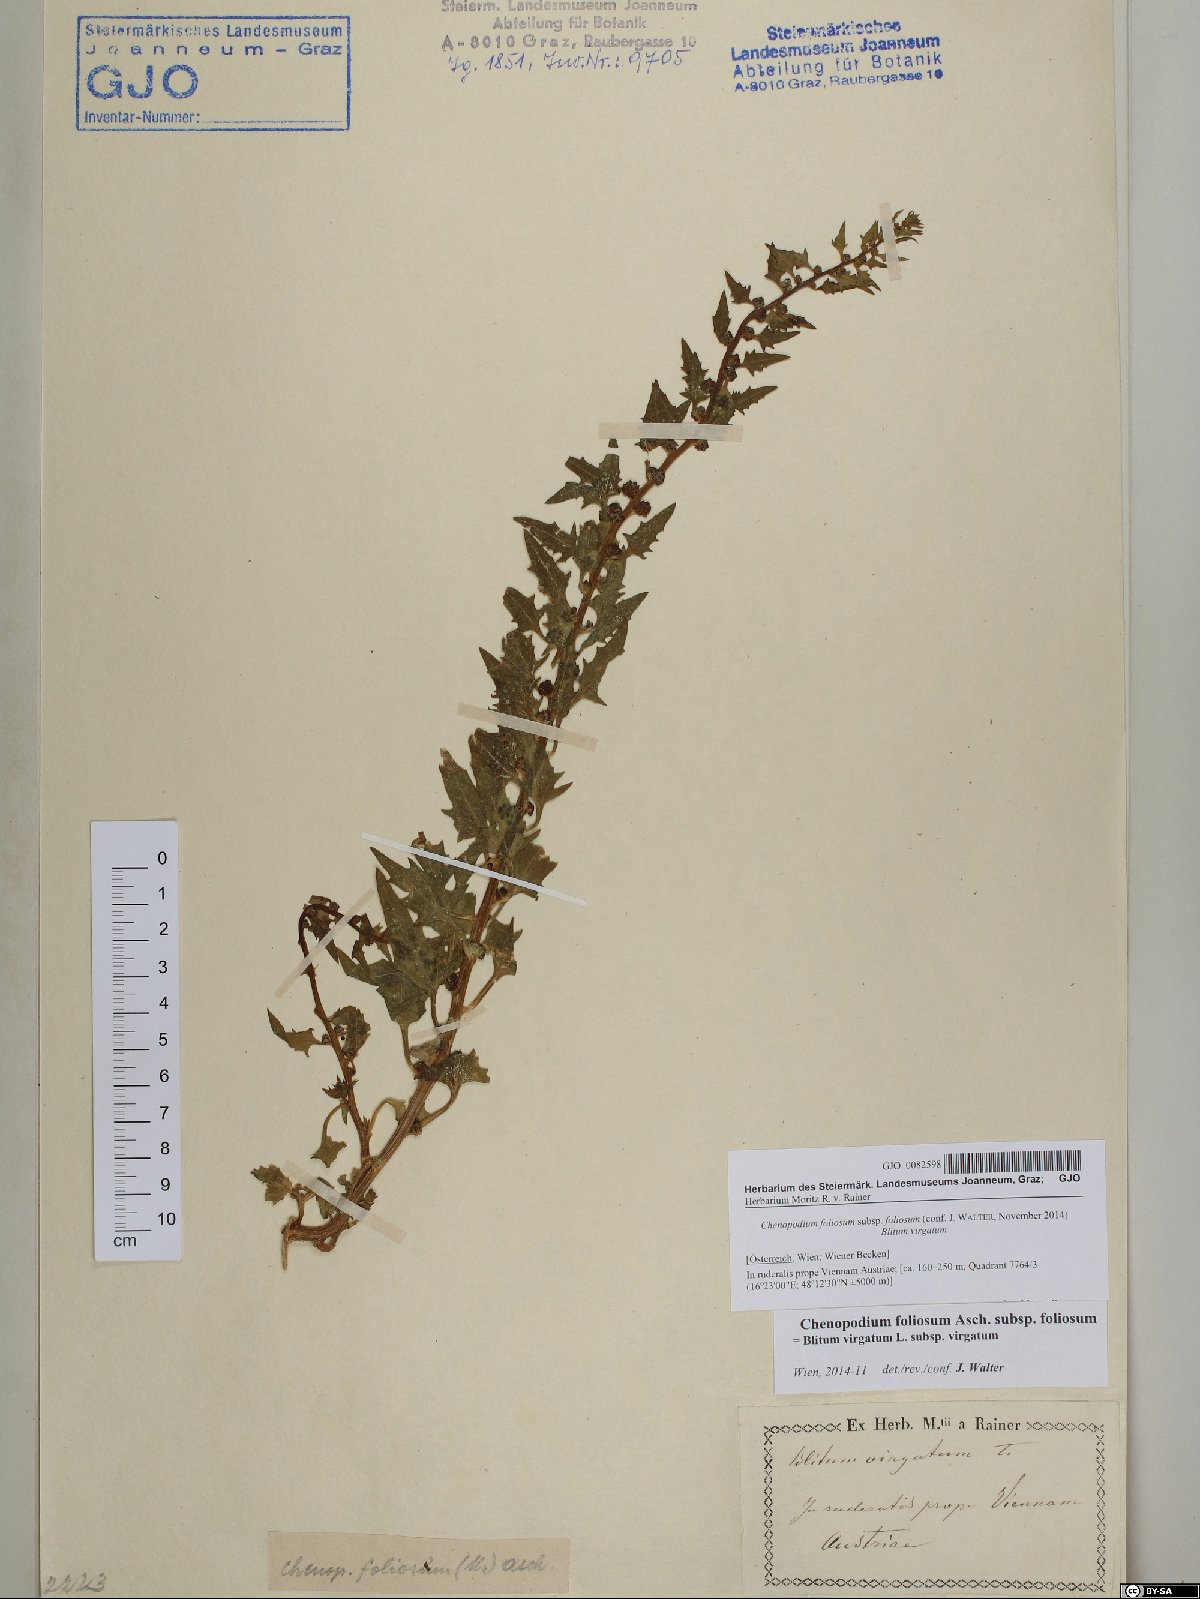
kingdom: Plantae
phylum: Tracheophyta
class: Magnoliopsida
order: Caryophyllales
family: Amaranthaceae
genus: Blitum
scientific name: Blitum virgatum
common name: Strawberry goosefoot
